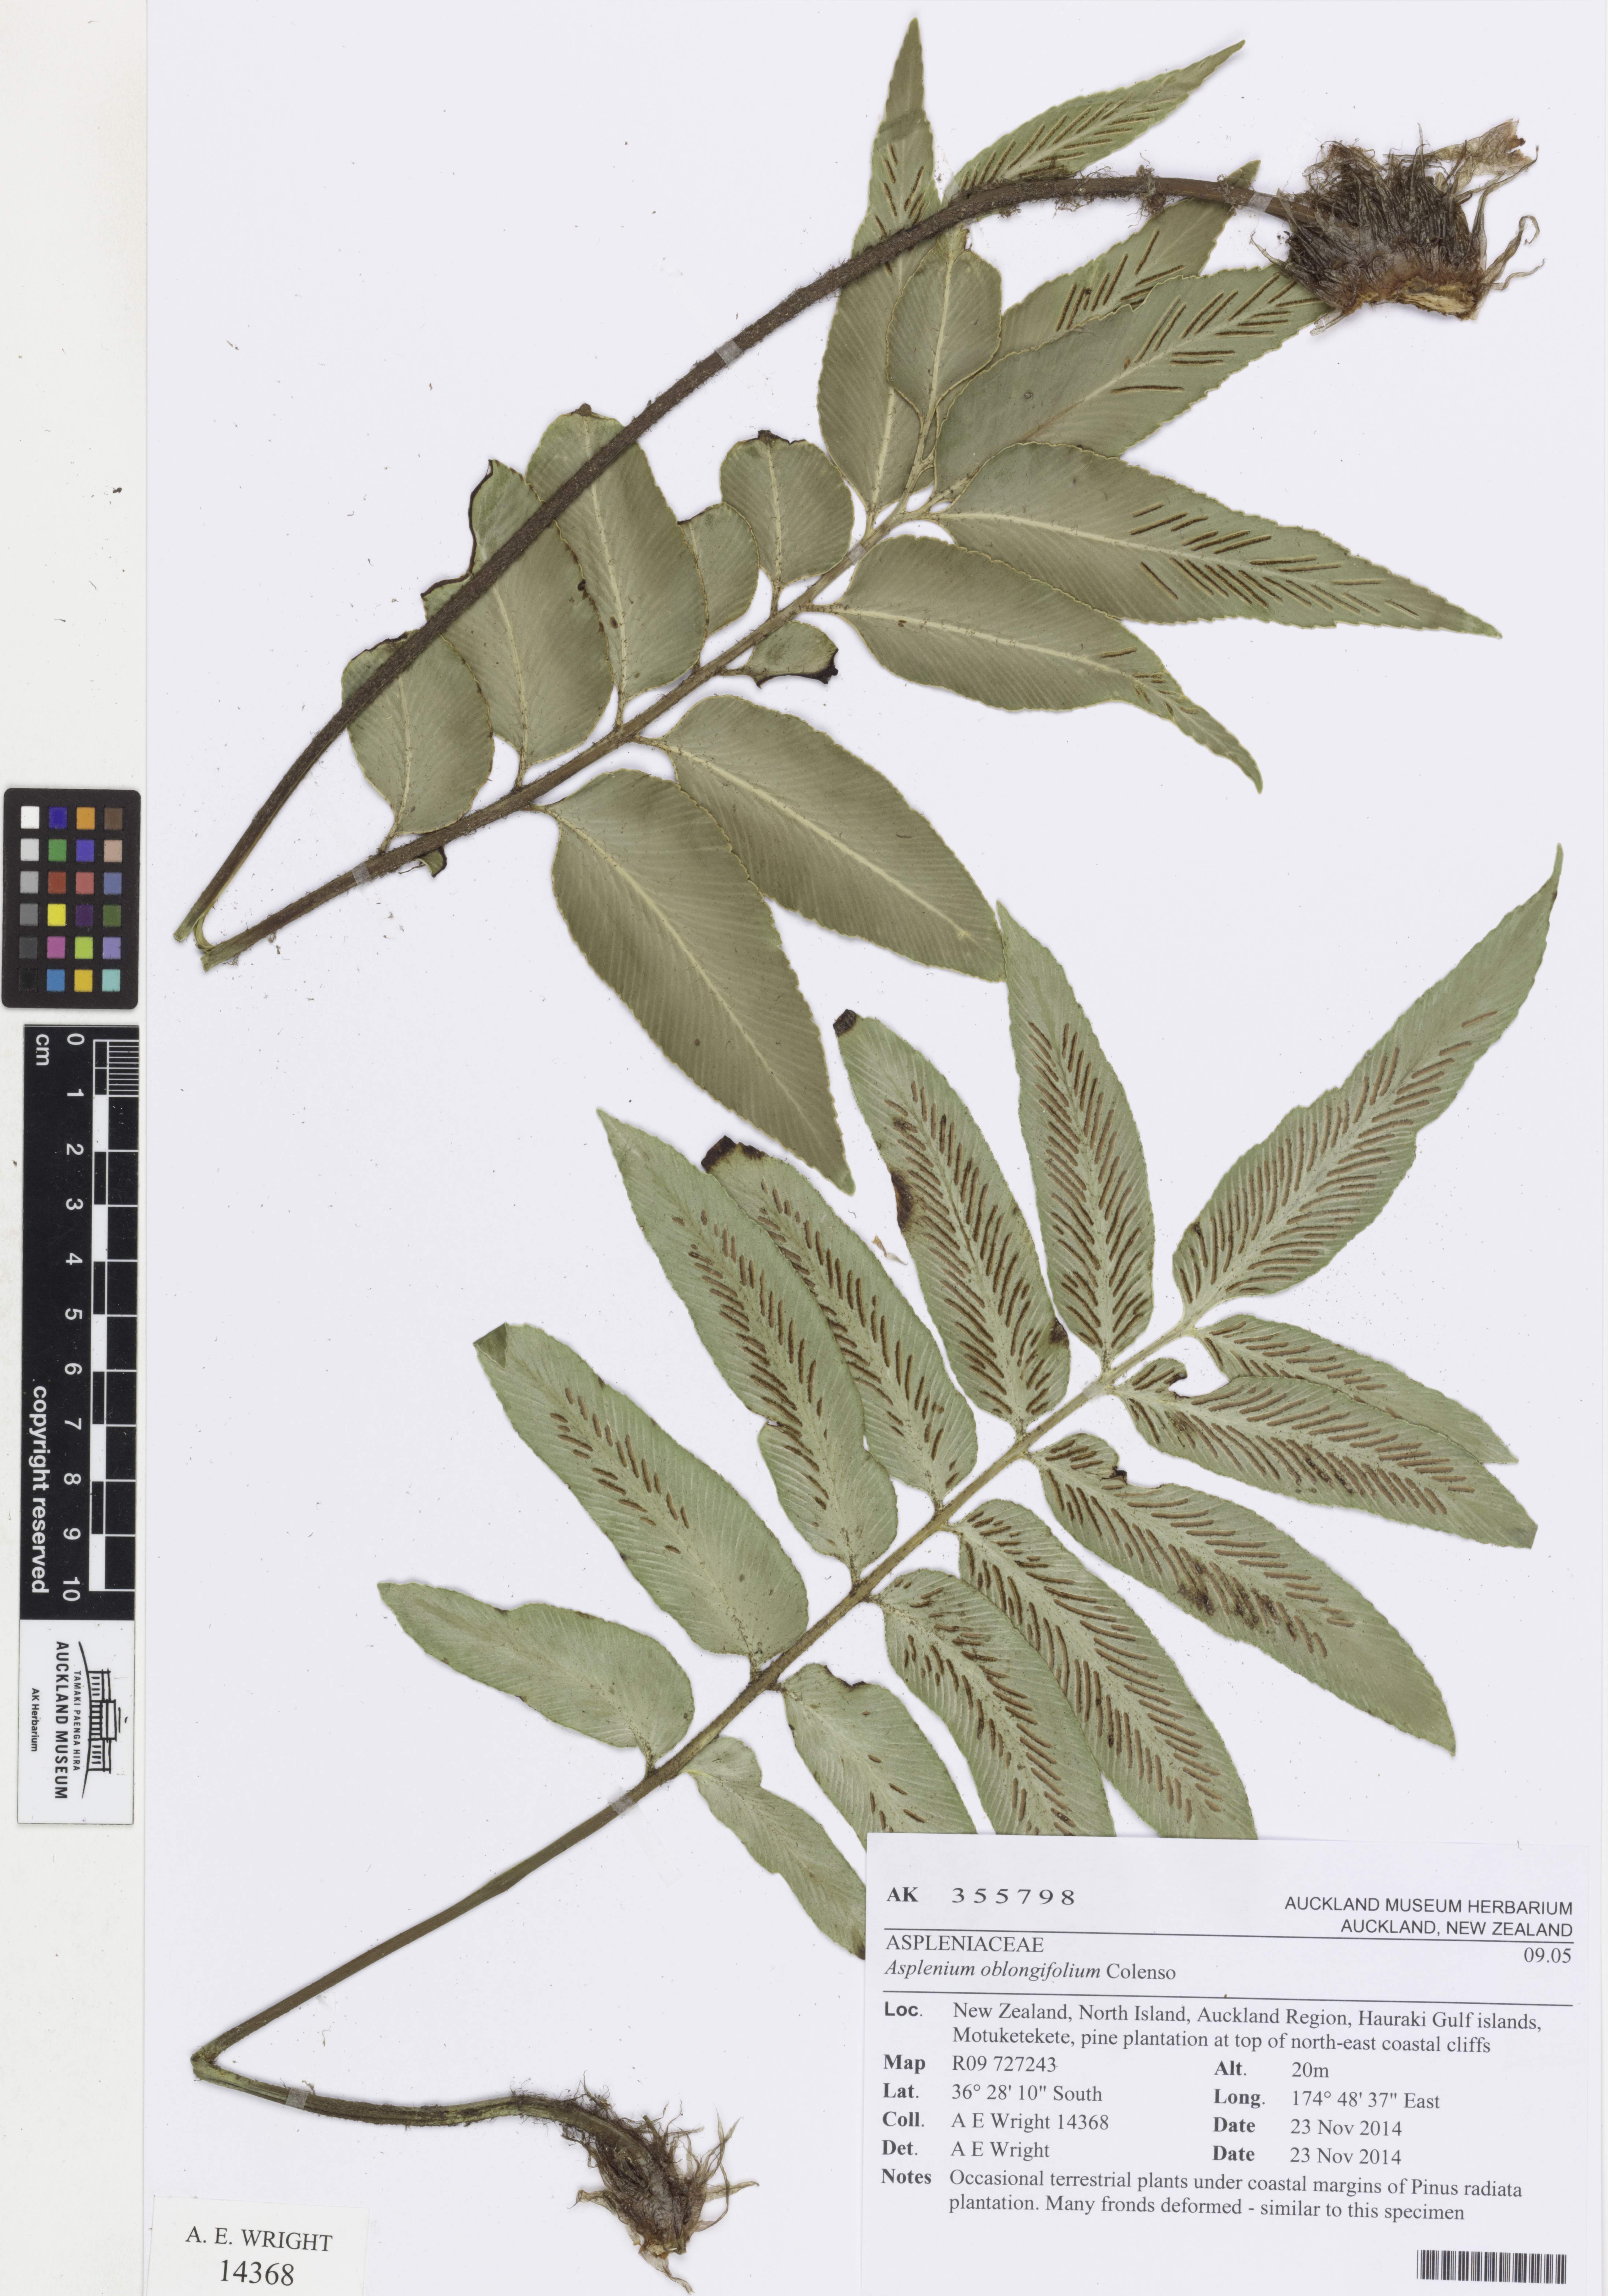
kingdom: Plantae
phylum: Tracheophyta
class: Polypodiopsida
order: Polypodiales
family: Aspleniaceae
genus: Asplenium
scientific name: Asplenium oblongifolium
